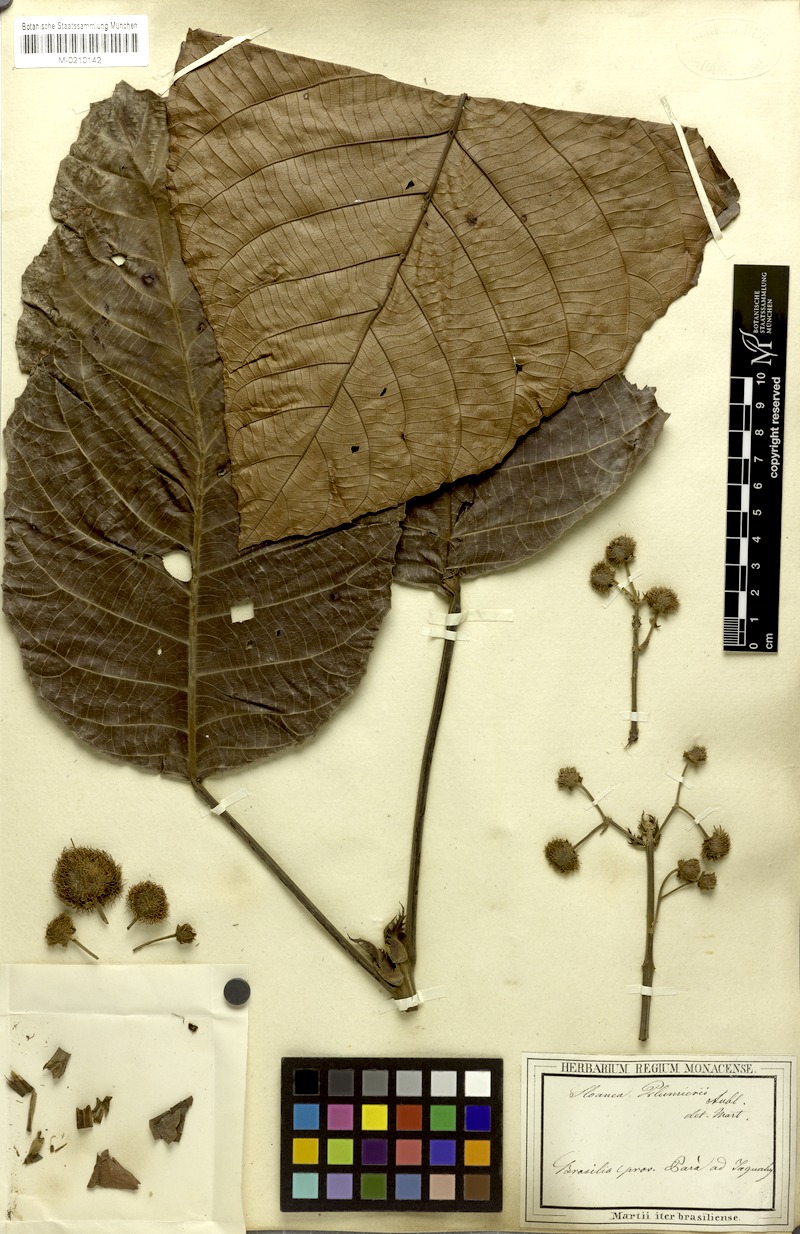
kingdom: Plantae
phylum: Tracheophyta
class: Magnoliopsida
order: Oxalidales
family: Elaeocarpaceae
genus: Sloanea
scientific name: Sloanea dentata
